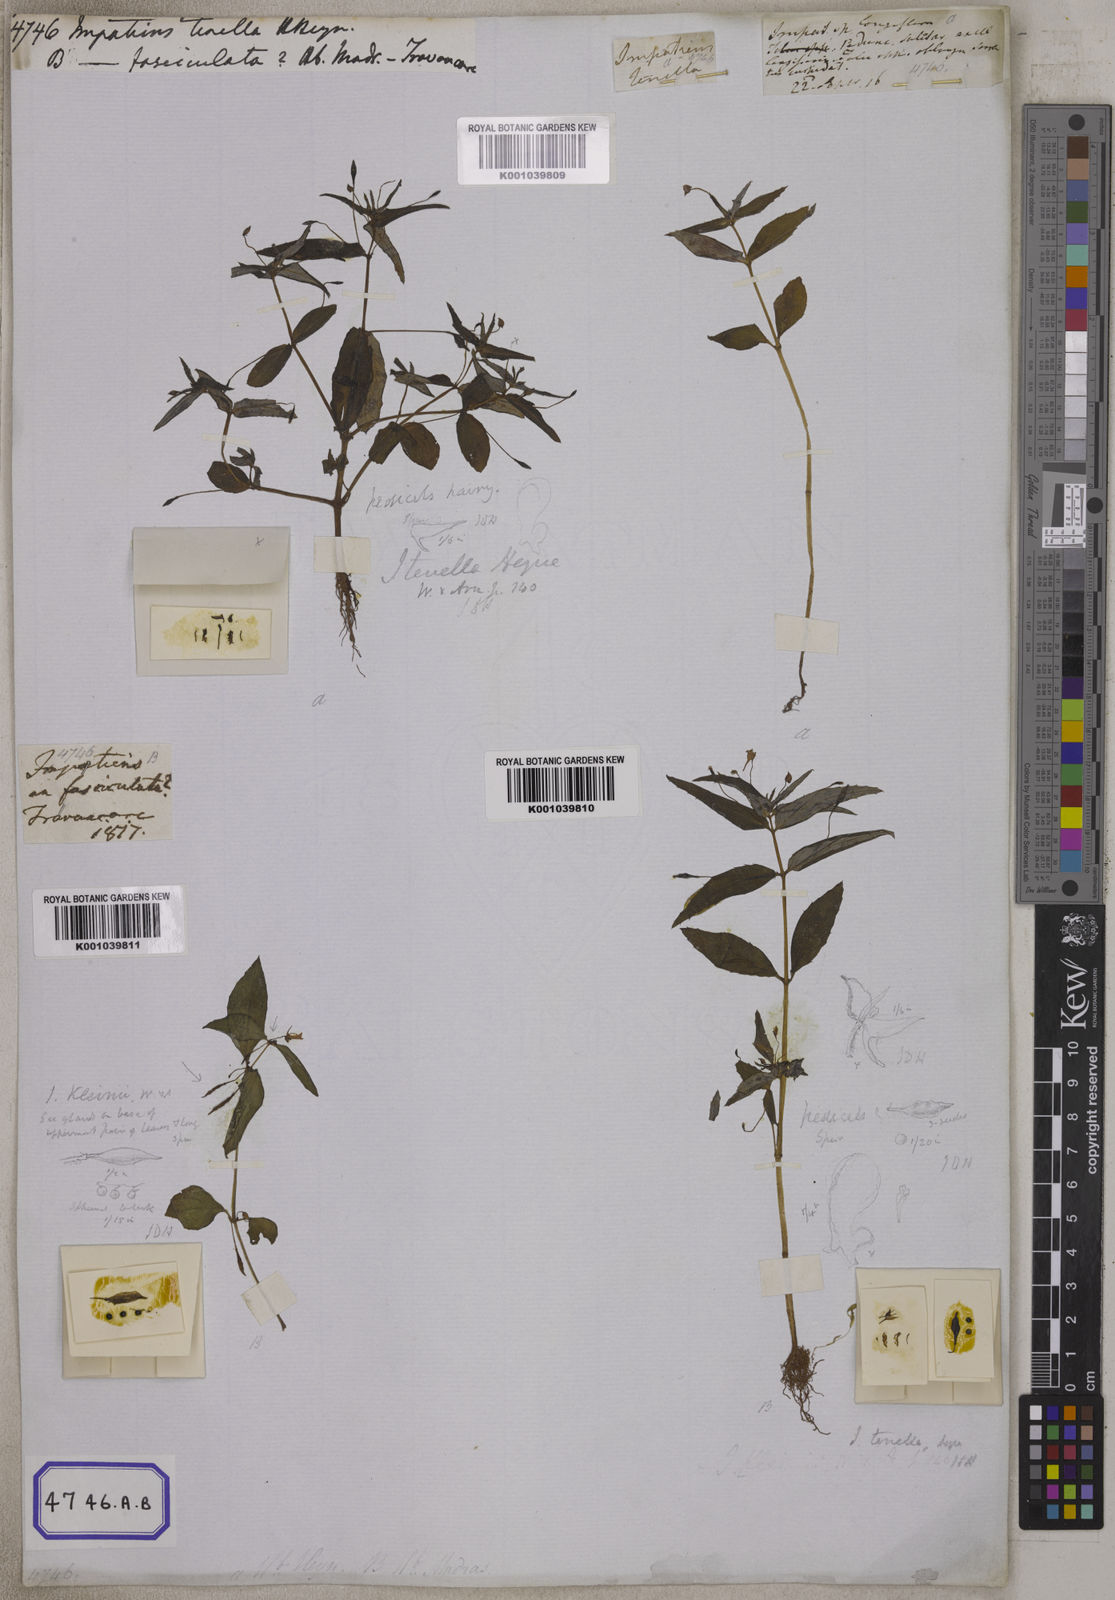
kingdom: Plantae
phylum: Tracheophyta
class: Magnoliopsida
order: Ericales
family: Balsaminaceae
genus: Impatiens
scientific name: Impatiens minor
